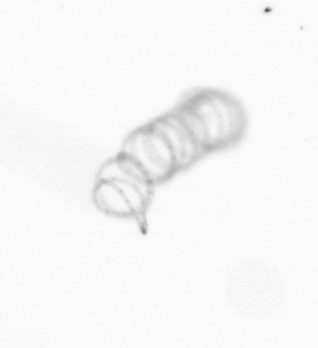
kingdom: Chromista
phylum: Ochrophyta
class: Bacillariophyceae
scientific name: Bacillariophyceae
